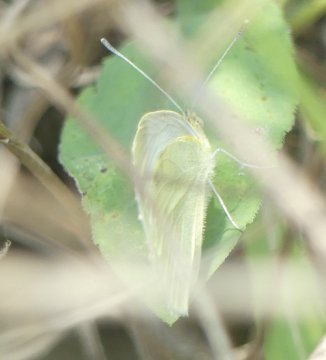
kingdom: Animalia
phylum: Arthropoda
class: Insecta
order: Lepidoptera
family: Pieridae
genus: Pieris
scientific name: Pieris rapae
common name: Cabbage White
